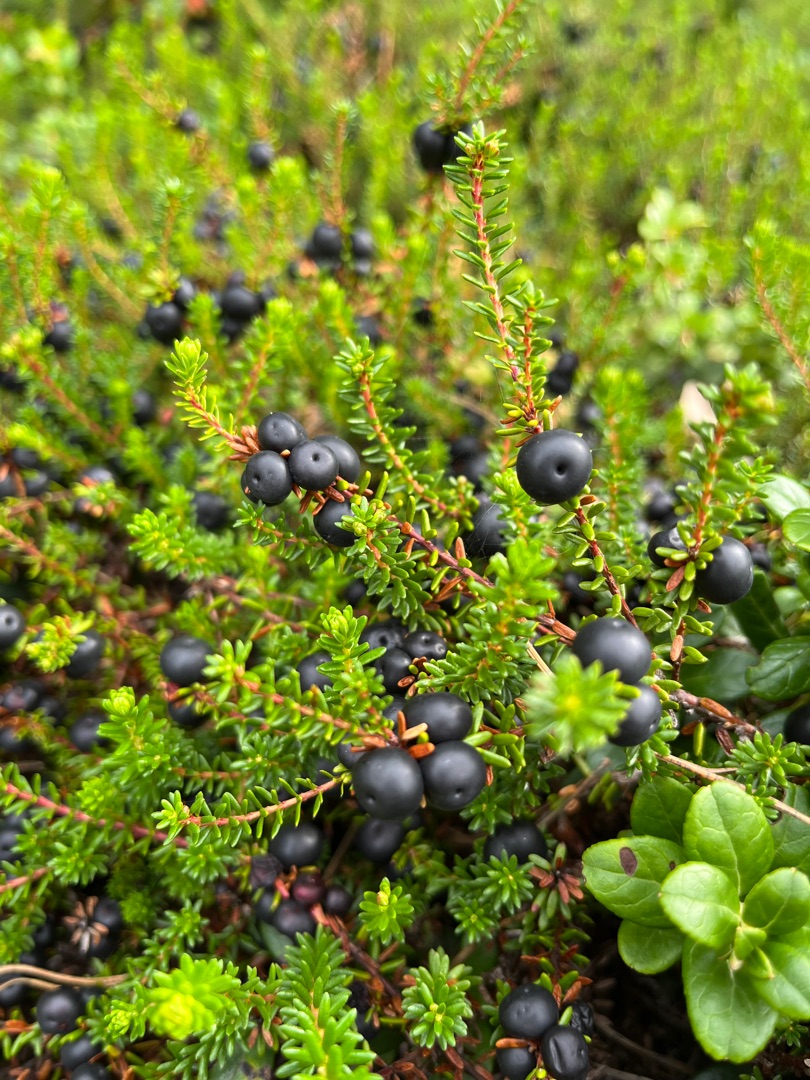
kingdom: Plantae
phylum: Tracheophyta
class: Magnoliopsida
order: Ericales
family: Ericaceae
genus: Empetrum
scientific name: Empetrum nigrum
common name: Revling
